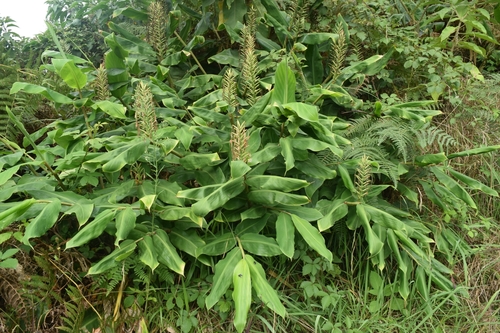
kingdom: Plantae
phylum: Tracheophyta
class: Liliopsida
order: Zingiberales
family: Zingiberaceae
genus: Hedychium
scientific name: Hedychium gardnerianum
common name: Himalayan ginger
